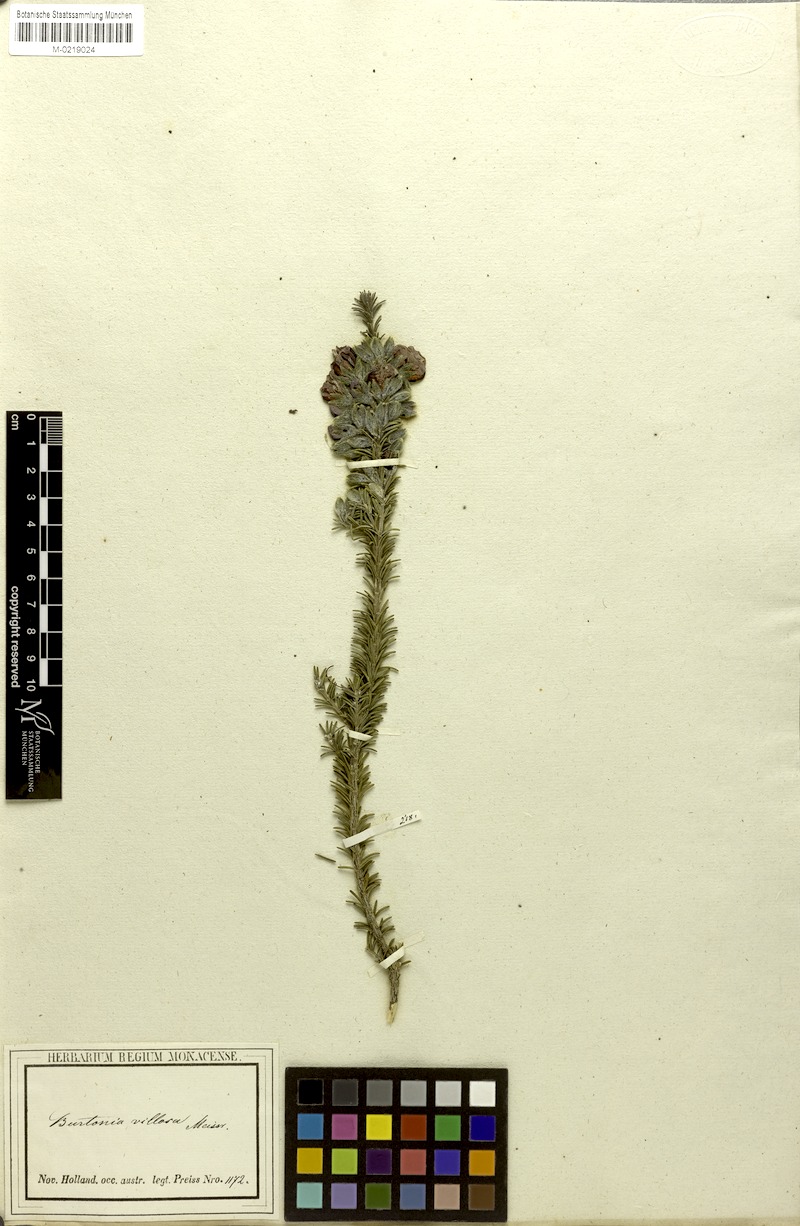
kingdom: Plantae
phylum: Tracheophyta
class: Magnoliopsida
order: Fabales
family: Fabaceae
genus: Gompholobium
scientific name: Gompholobium villosum
